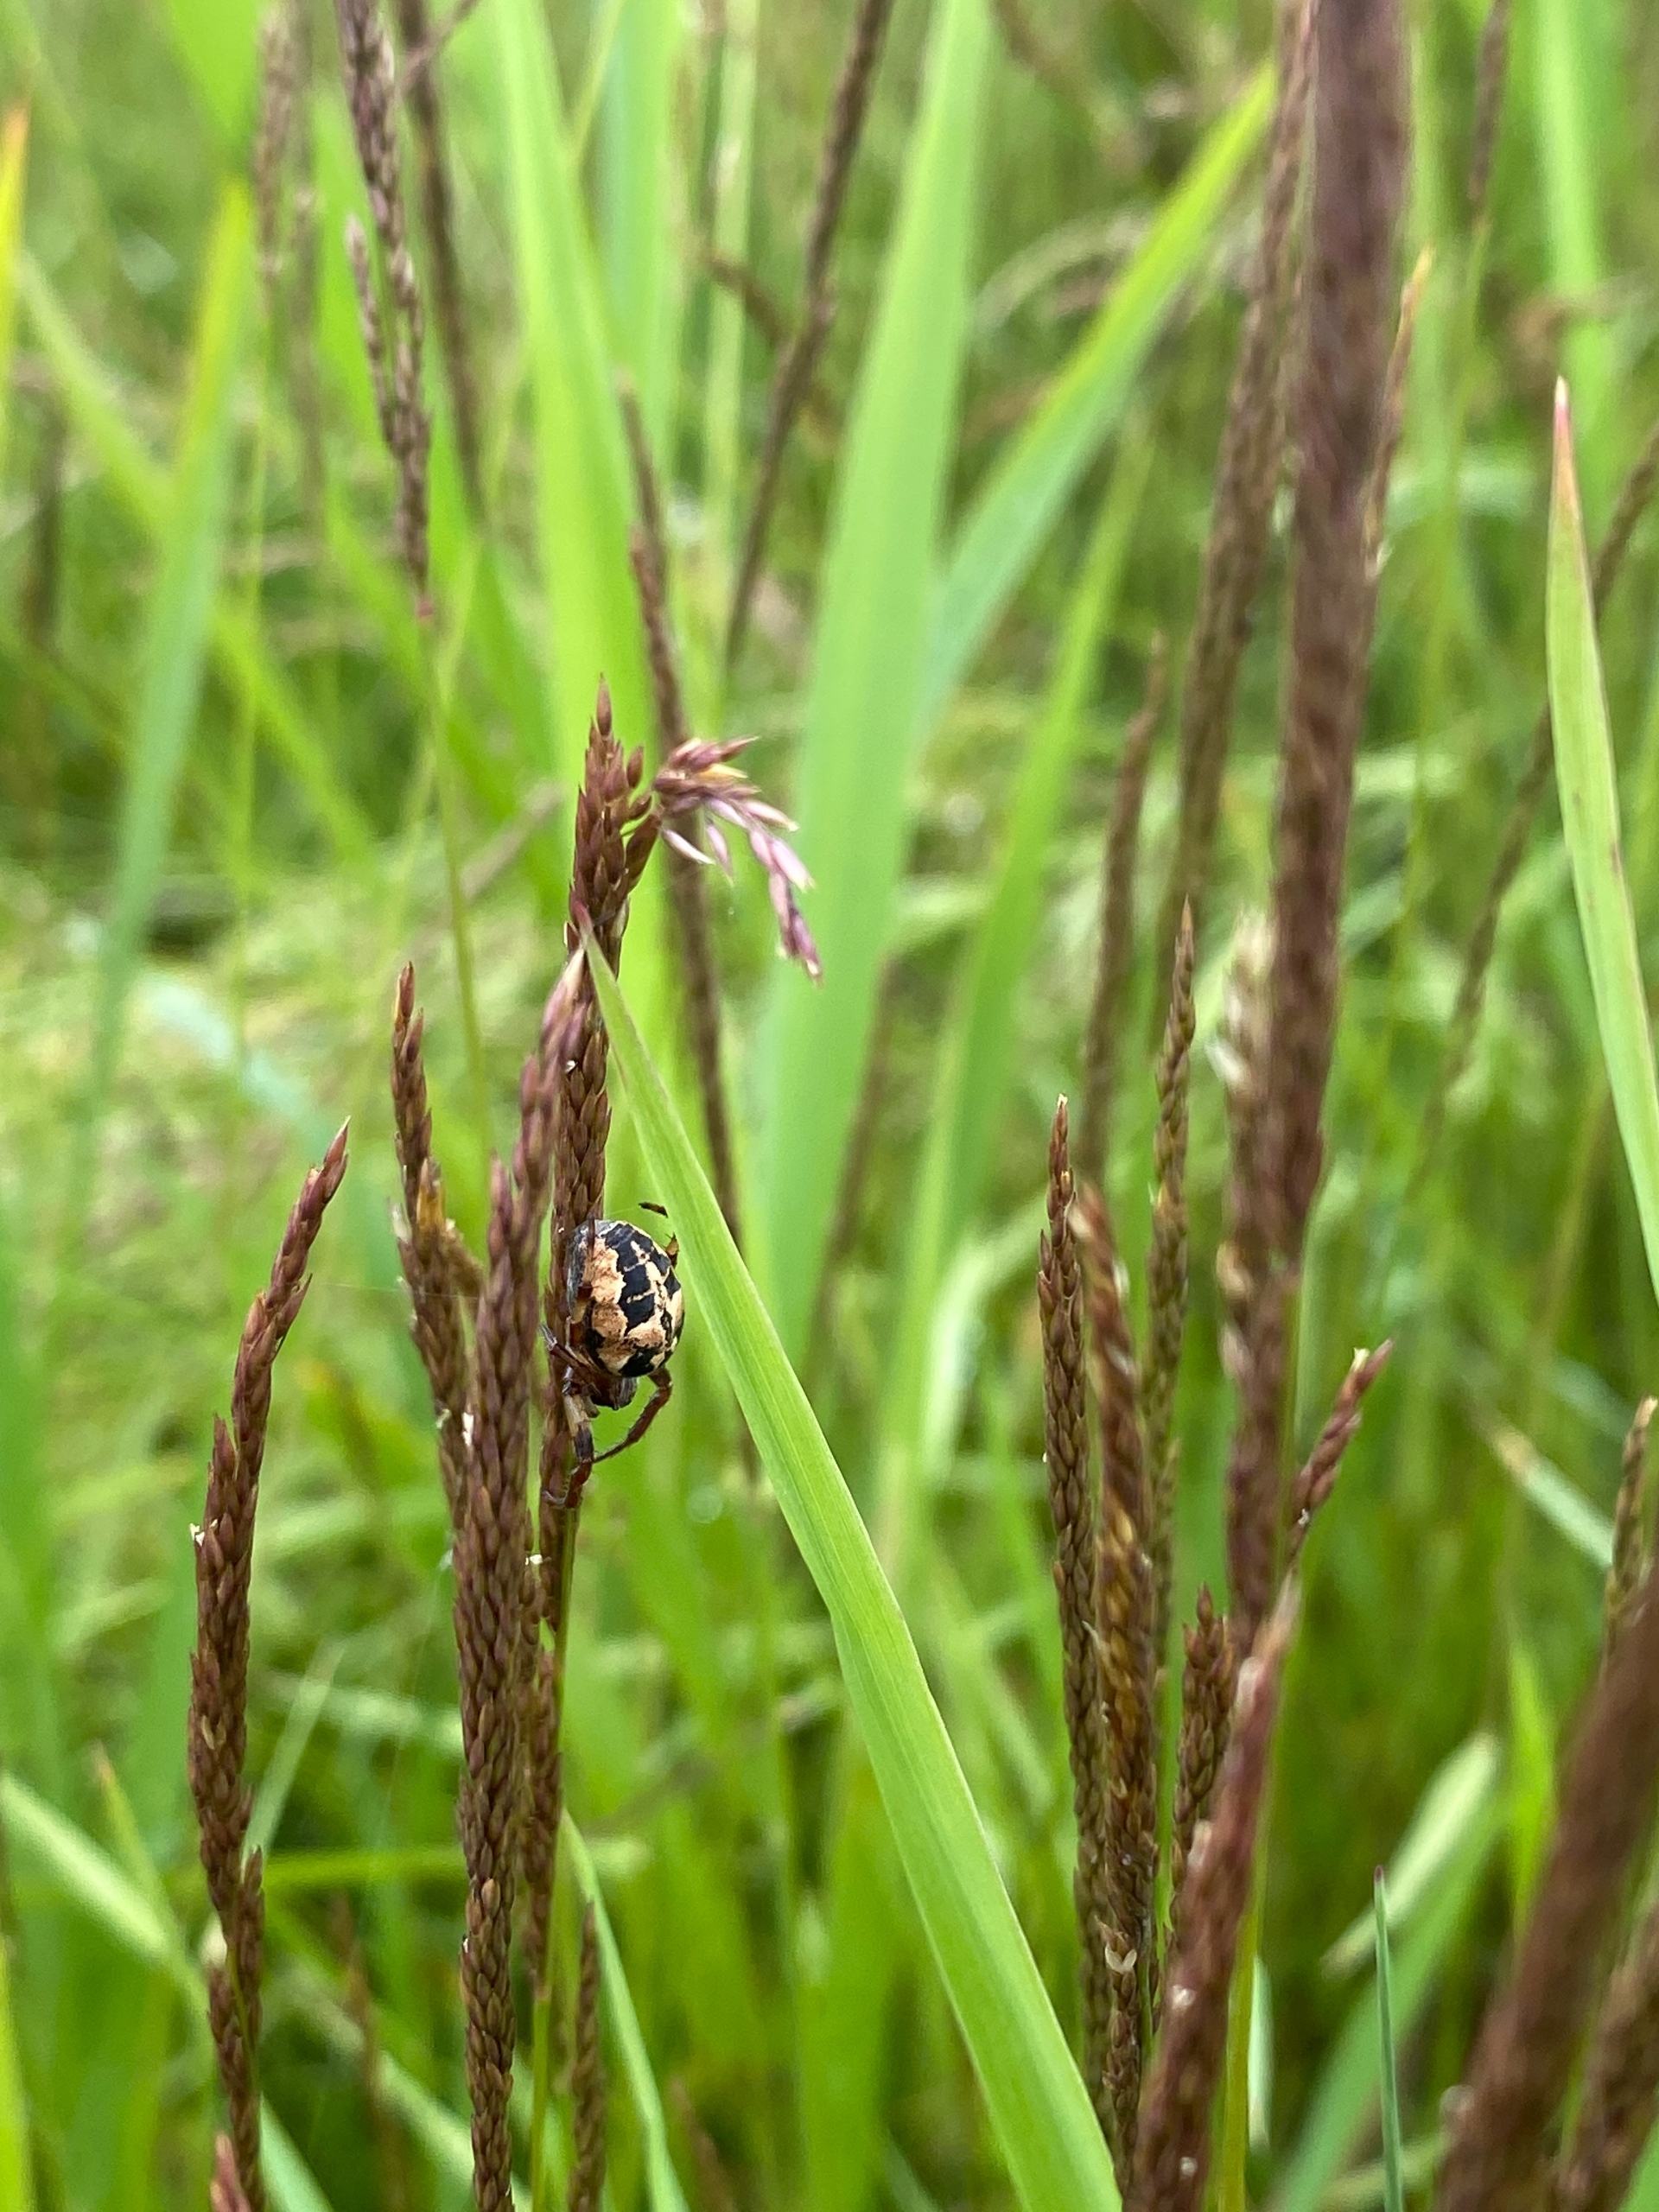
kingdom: Animalia
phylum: Arthropoda
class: Arachnida
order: Araneae
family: Araneidae
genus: Larinioides
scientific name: Larinioides cornutus
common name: Sivhjulspinder
